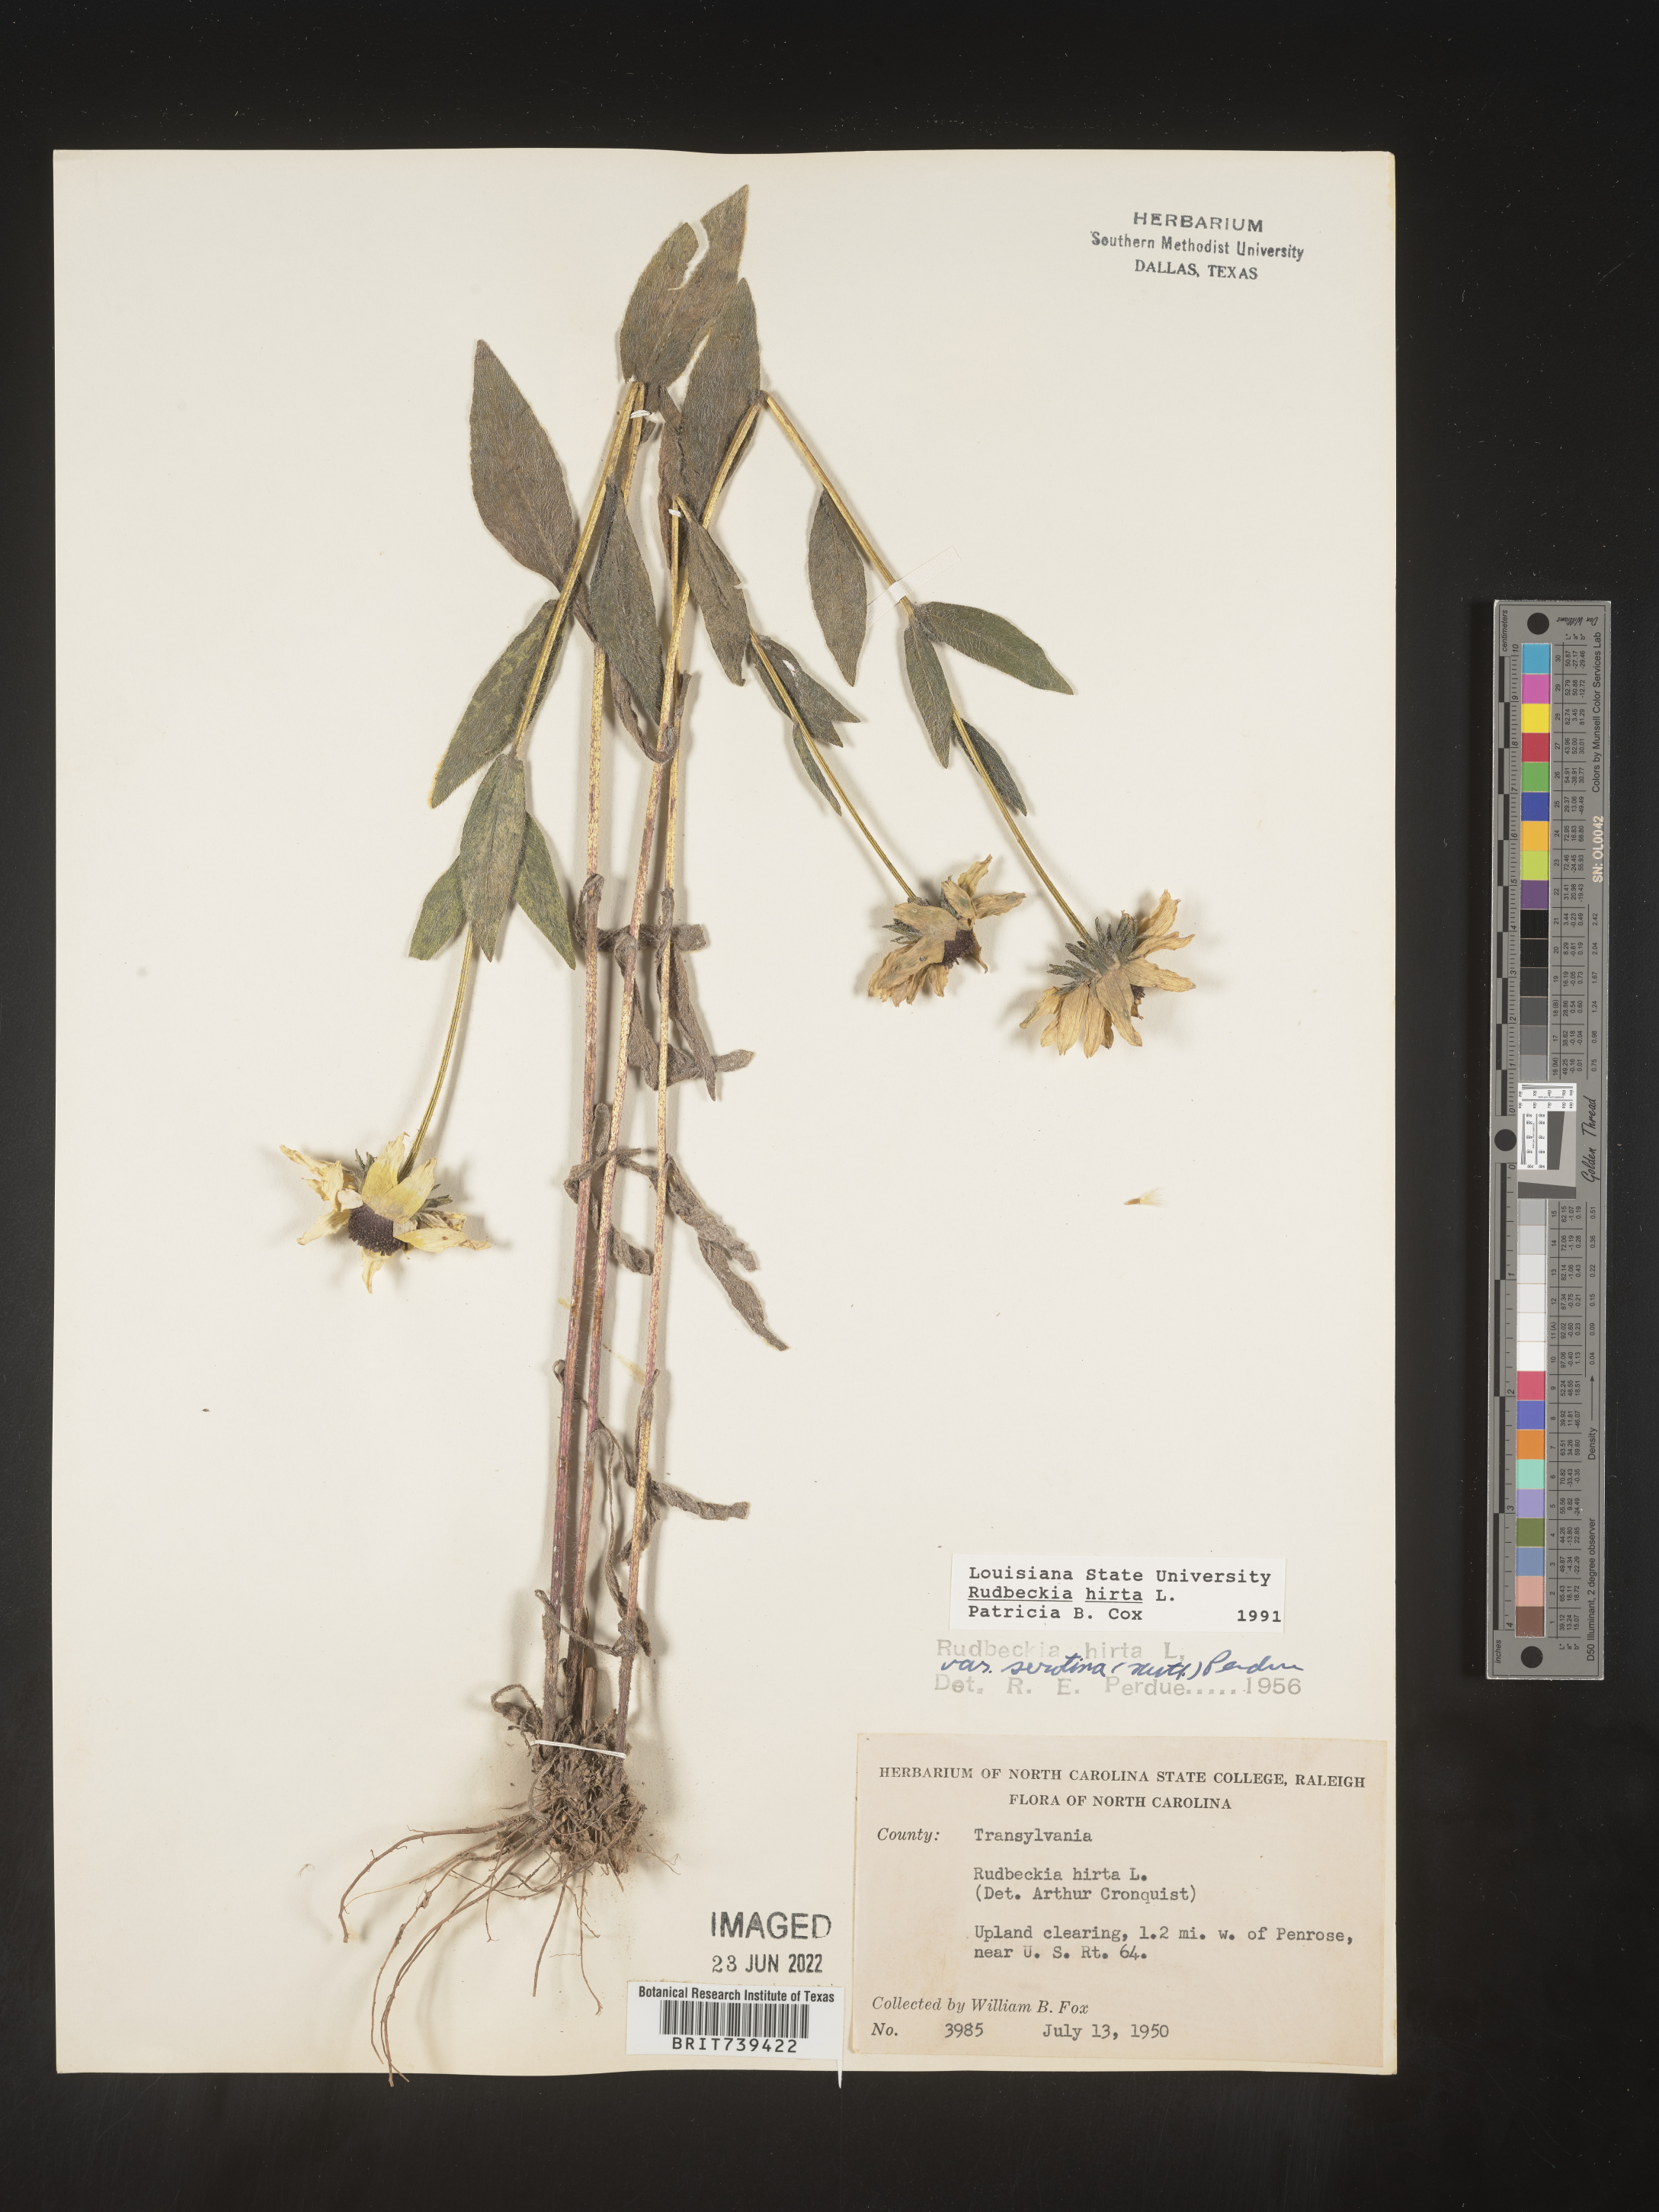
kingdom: Plantae
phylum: Tracheophyta
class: Magnoliopsida
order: Asterales
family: Asteraceae
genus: Rudbeckia
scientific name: Rudbeckia hirta
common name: Black-eyed-susan
